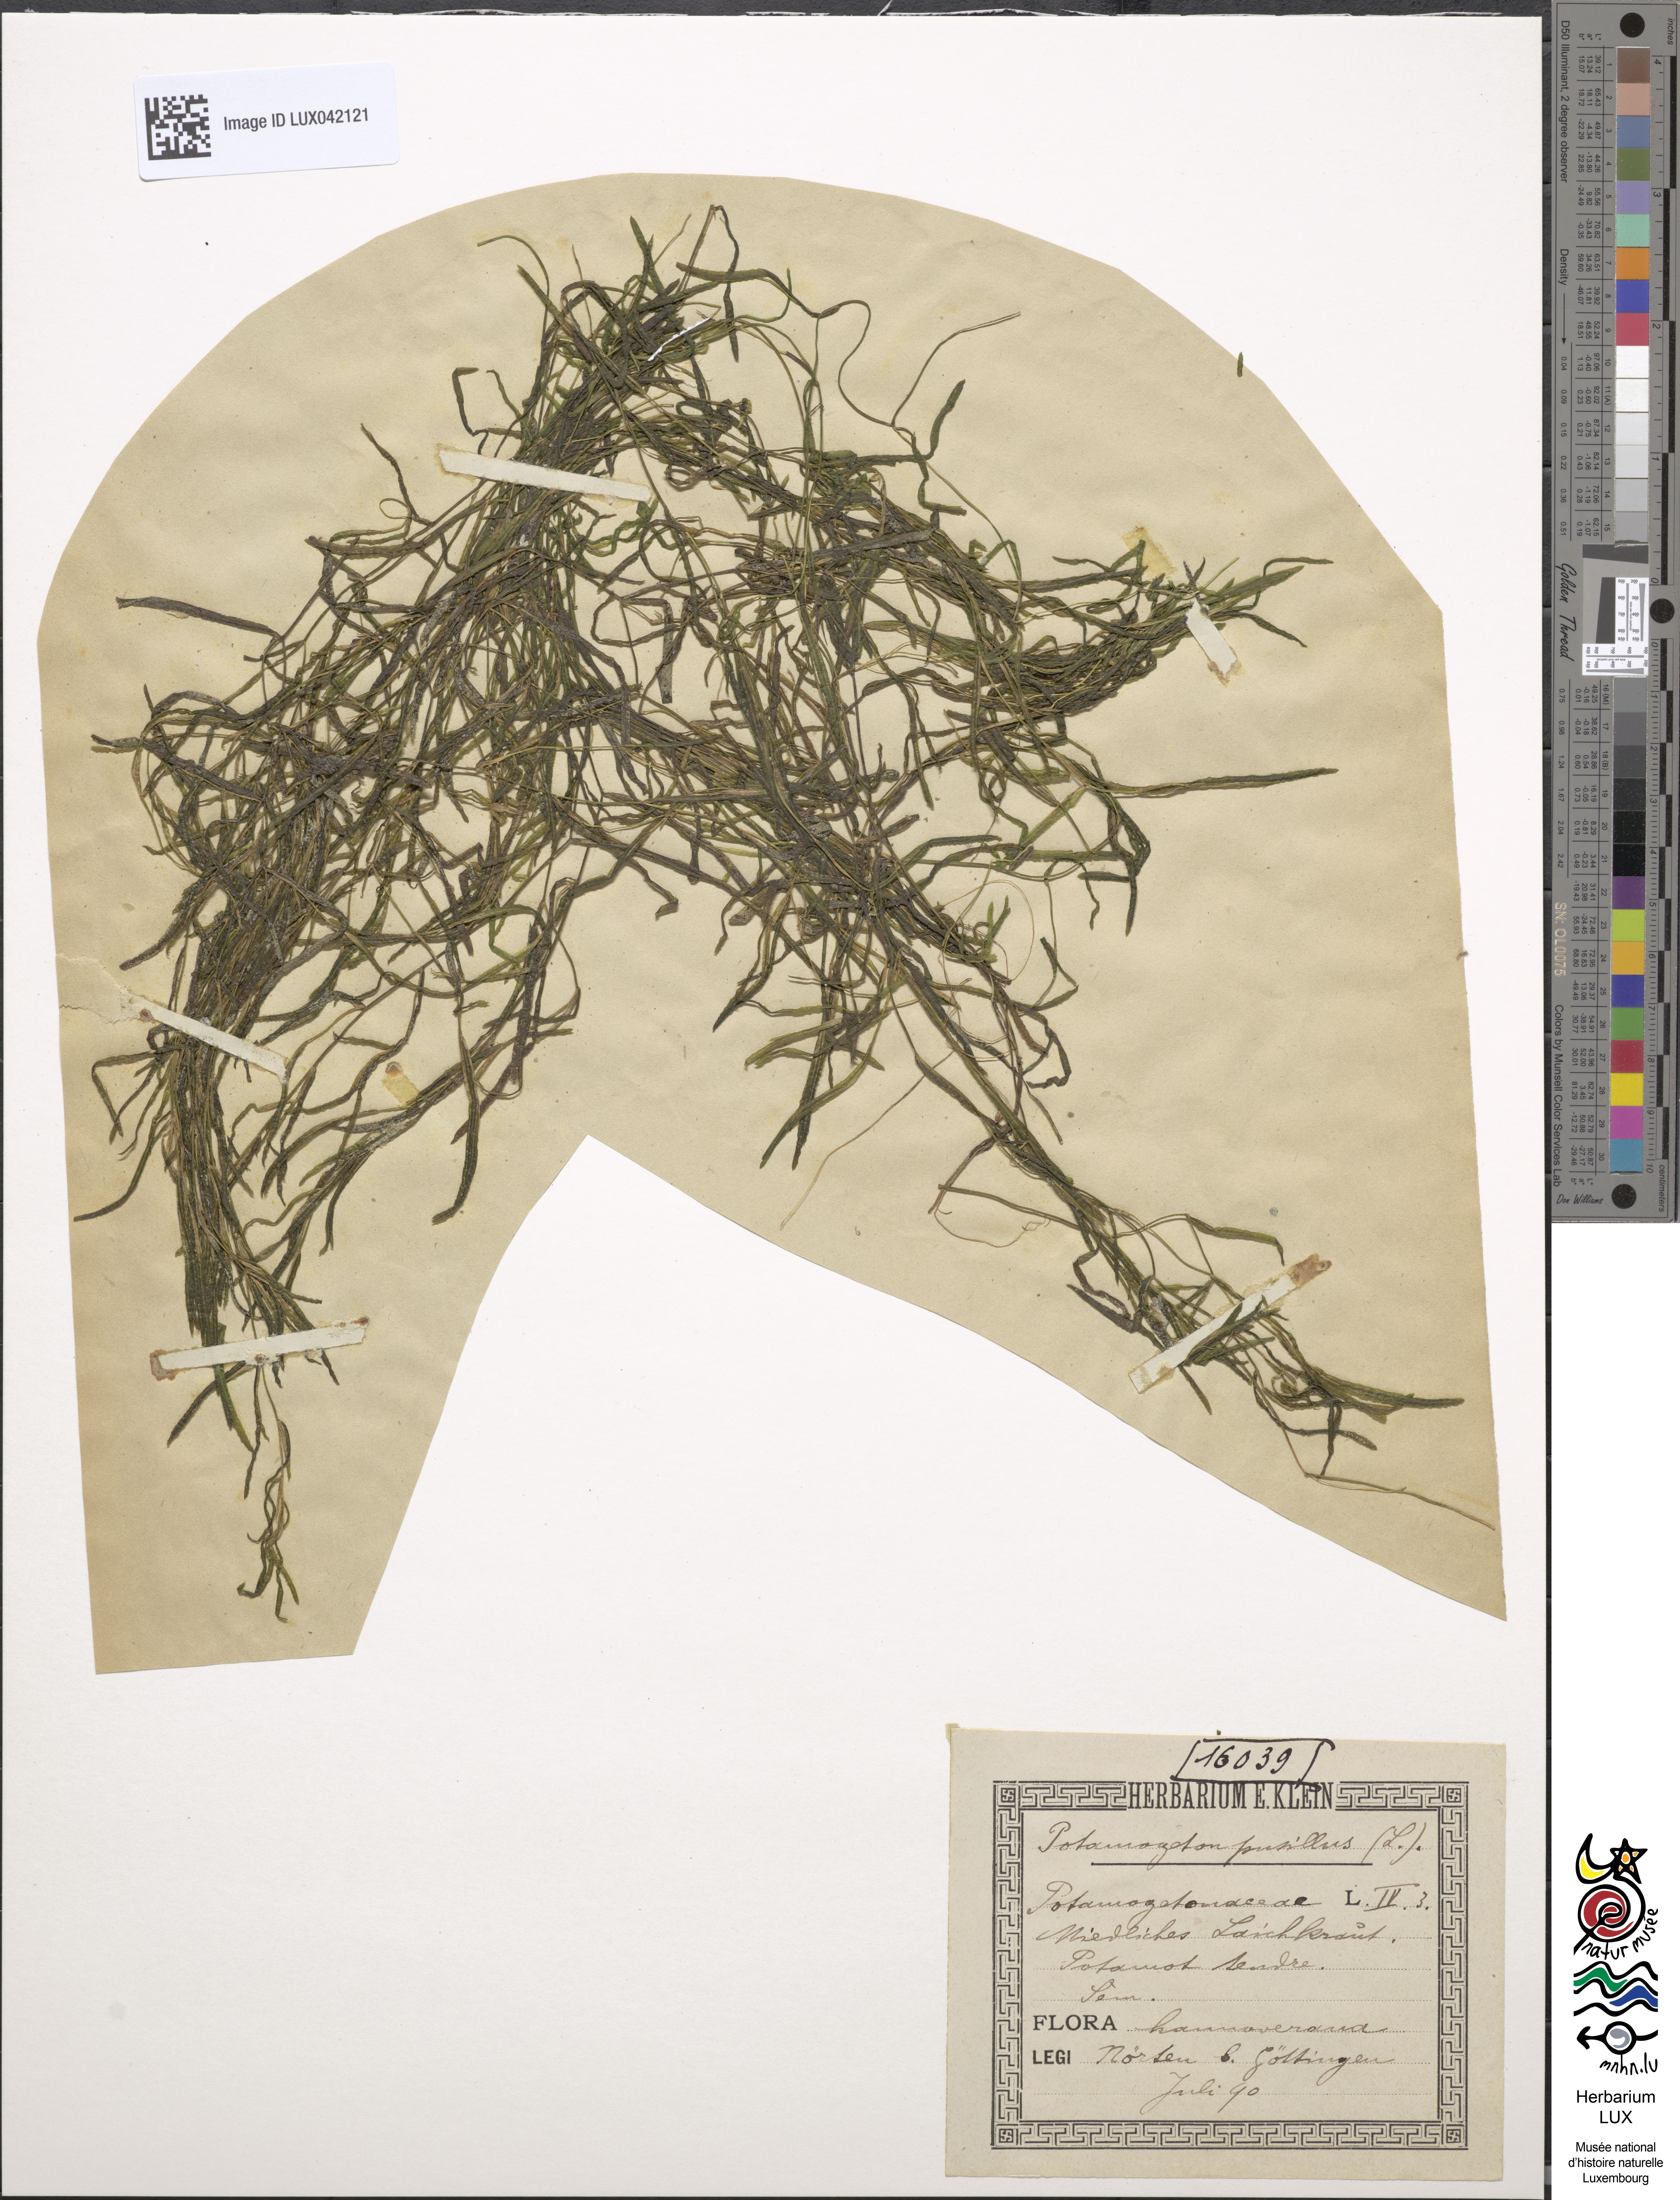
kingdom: Plantae
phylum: Tracheophyta
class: Liliopsida
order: Alismatales
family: Potamogetonaceae
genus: Potamogeton
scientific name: Potamogeton pusillus
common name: Lesser pondweed
